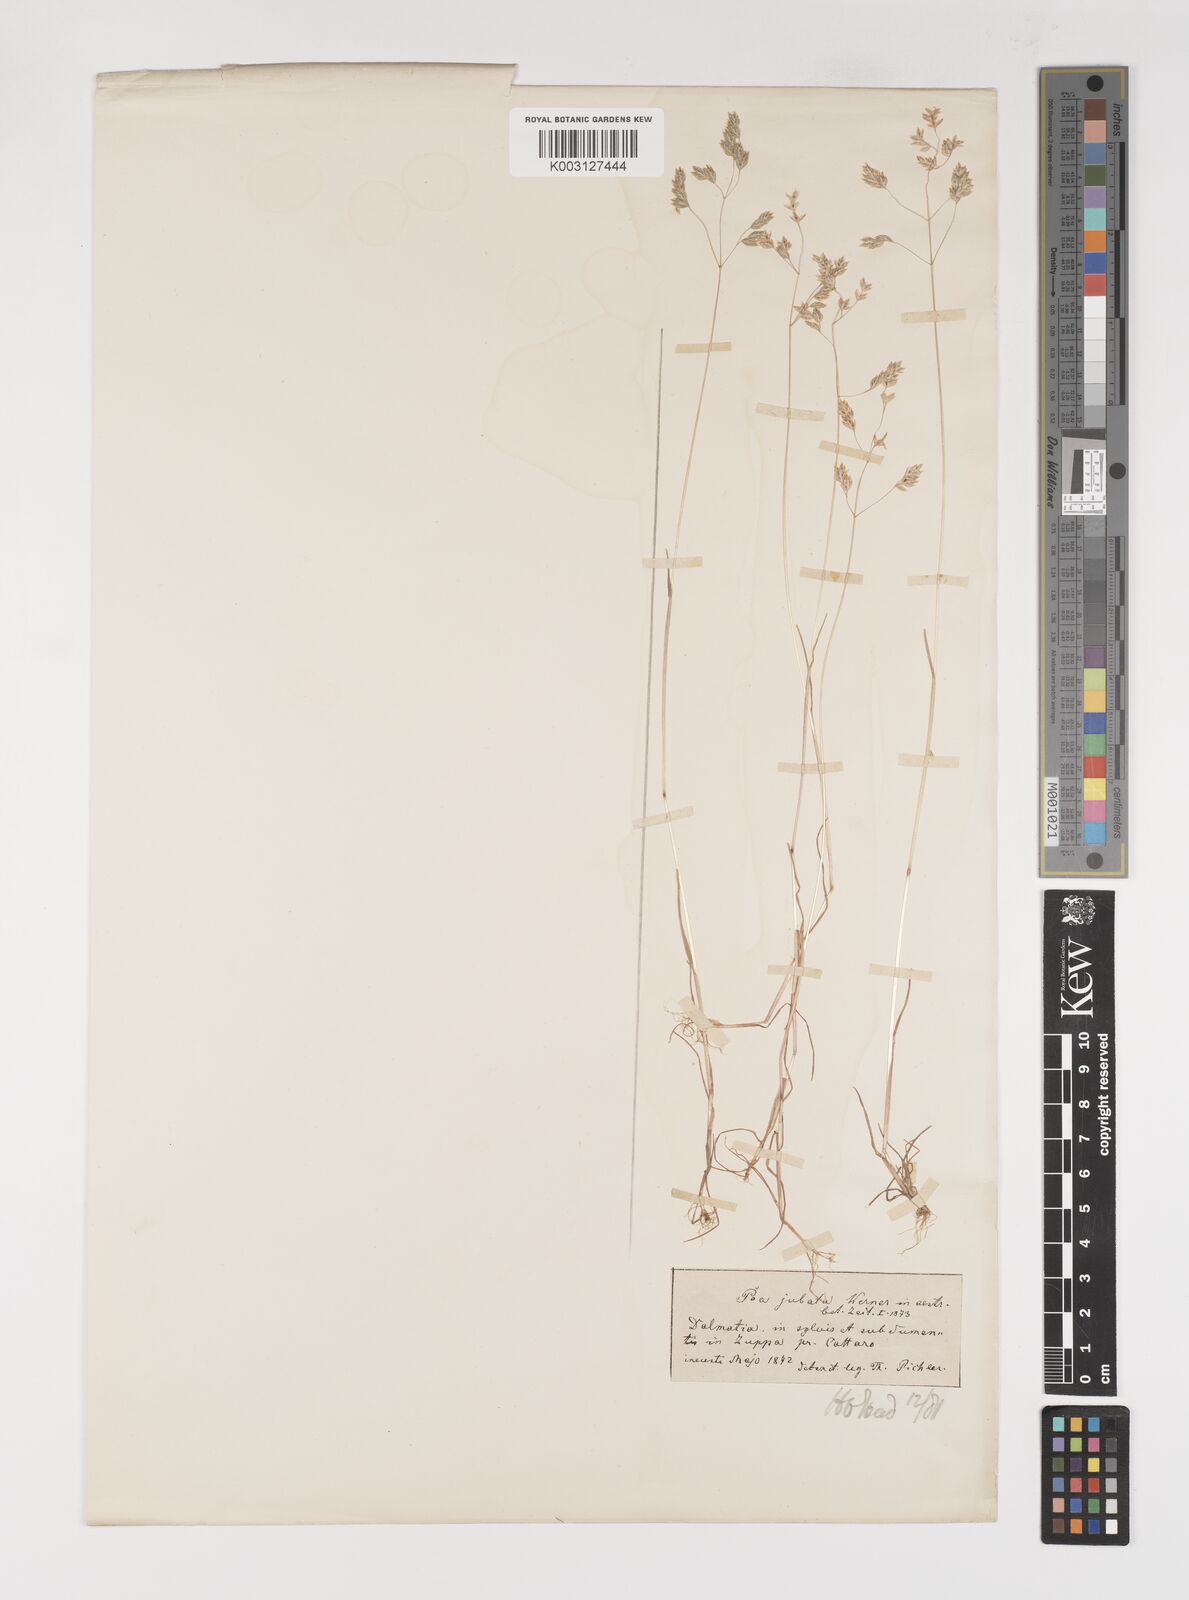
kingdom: Plantae
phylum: Tracheophyta
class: Liliopsida
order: Poales
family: Poaceae
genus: Poa
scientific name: Poa jubata
